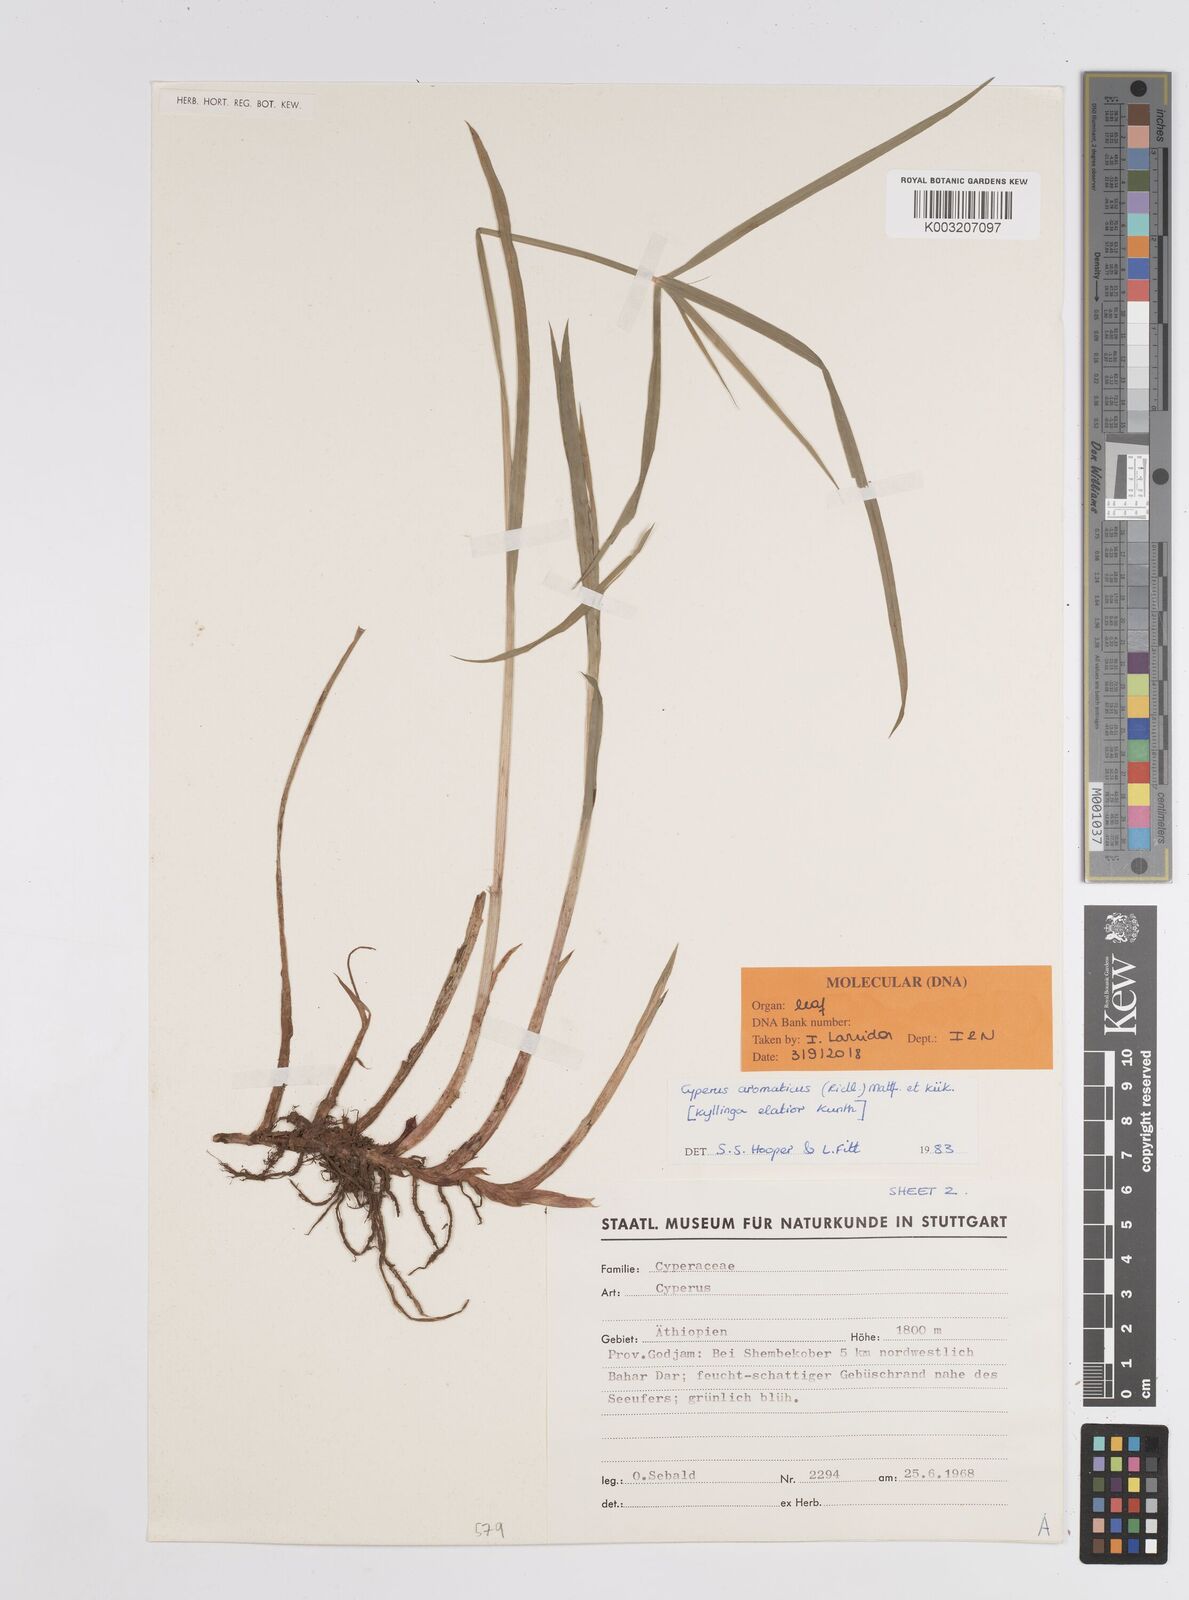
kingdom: Plantae
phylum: Tracheophyta
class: Liliopsida
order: Poales
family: Cyperaceae
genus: Cyperus
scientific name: Cyperus
